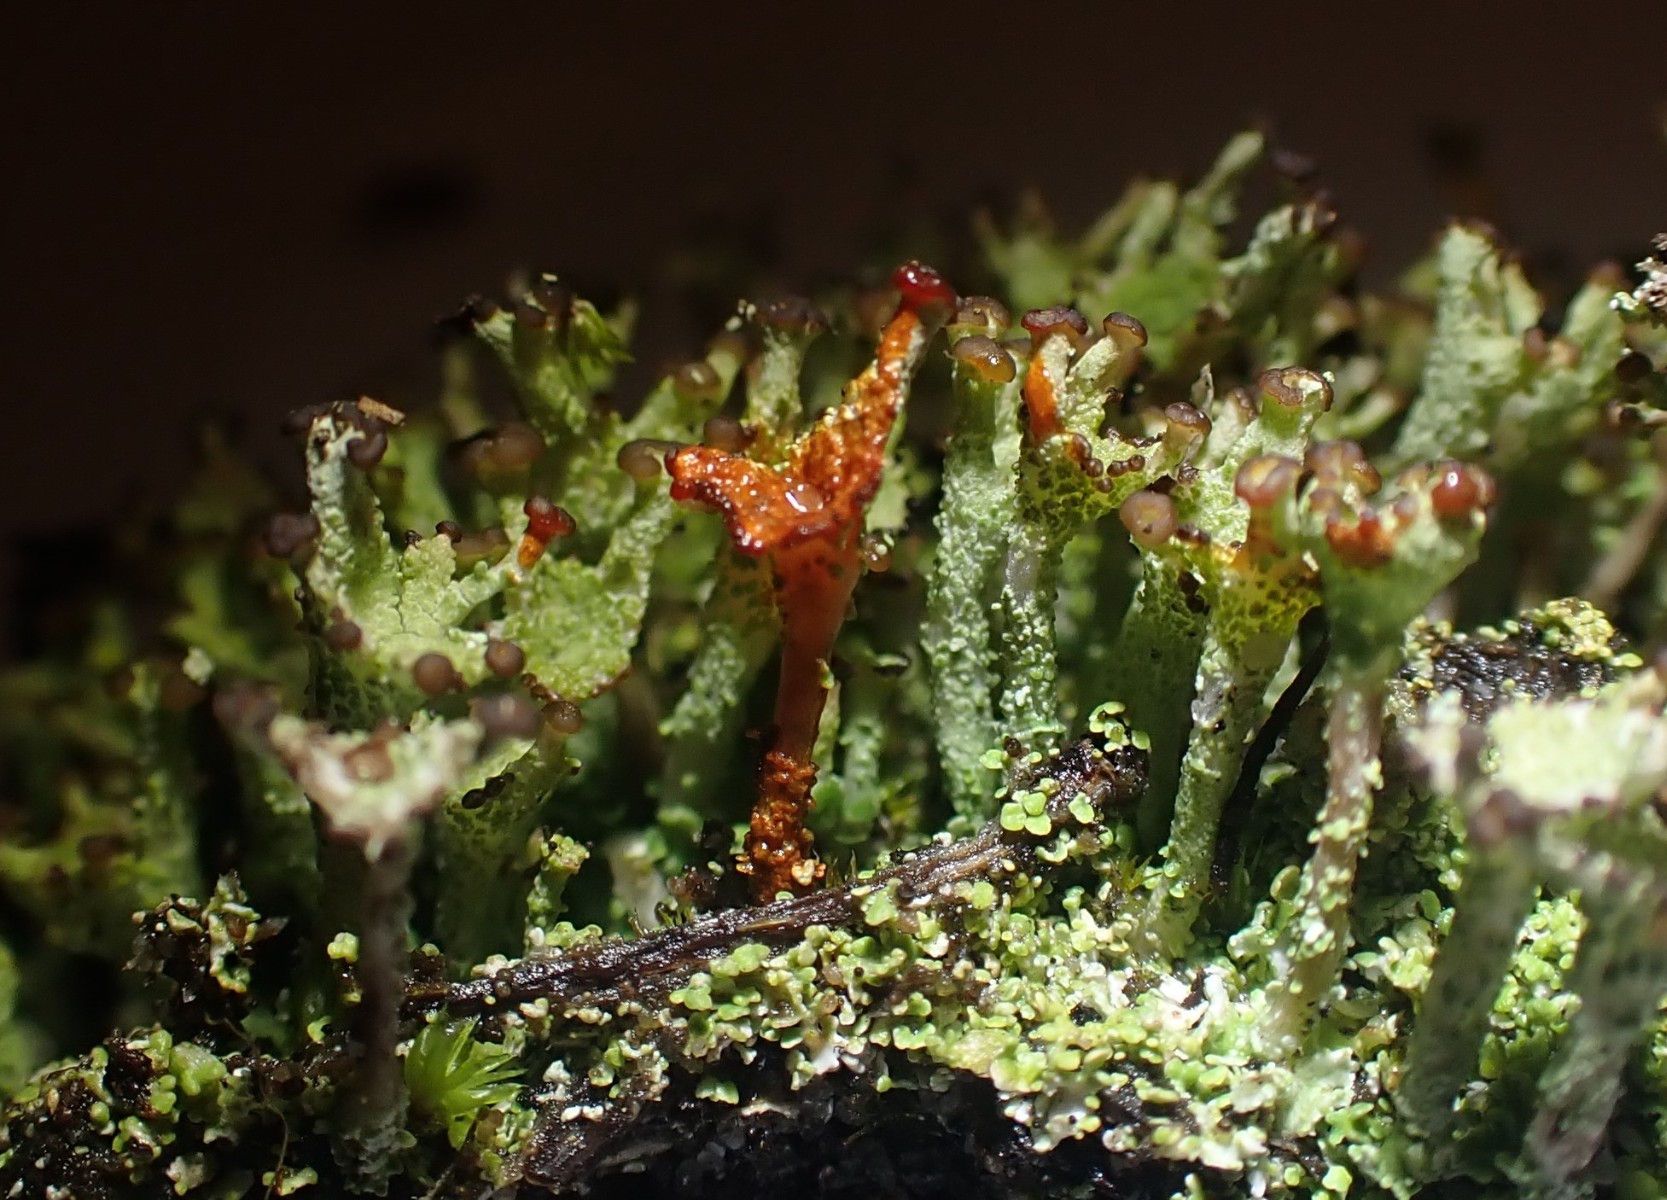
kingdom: Fungi
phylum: Ascomycota
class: Lecanoromycetes
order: Lecanorales
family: Cladoniaceae
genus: Cladonia
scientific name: Cladonia ramulosa
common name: kliddet bægerlav
